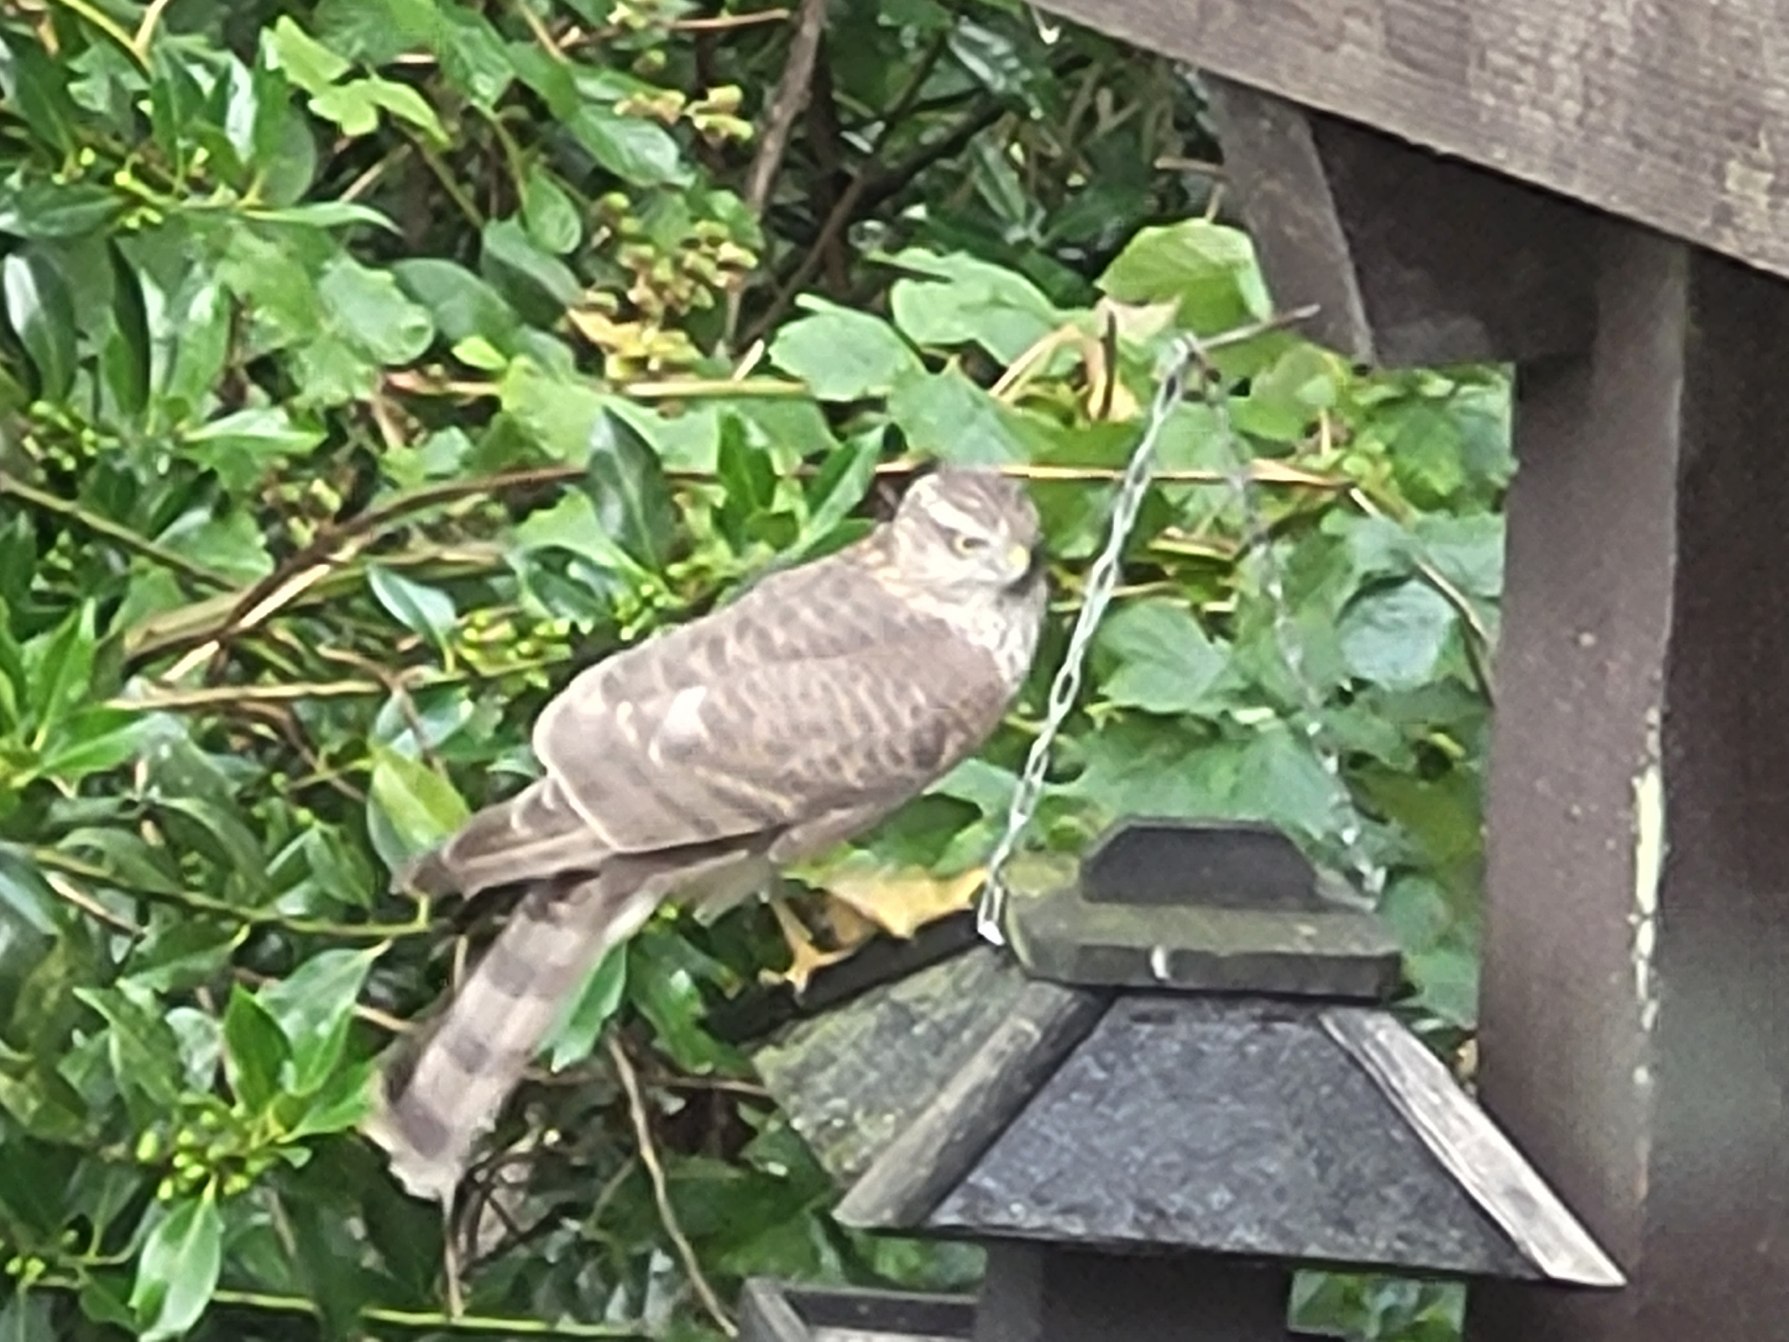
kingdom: Animalia
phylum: Chordata
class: Aves
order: Accipitriformes
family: Accipitridae
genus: Accipiter
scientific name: Accipiter nisus
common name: Spurvehøg
